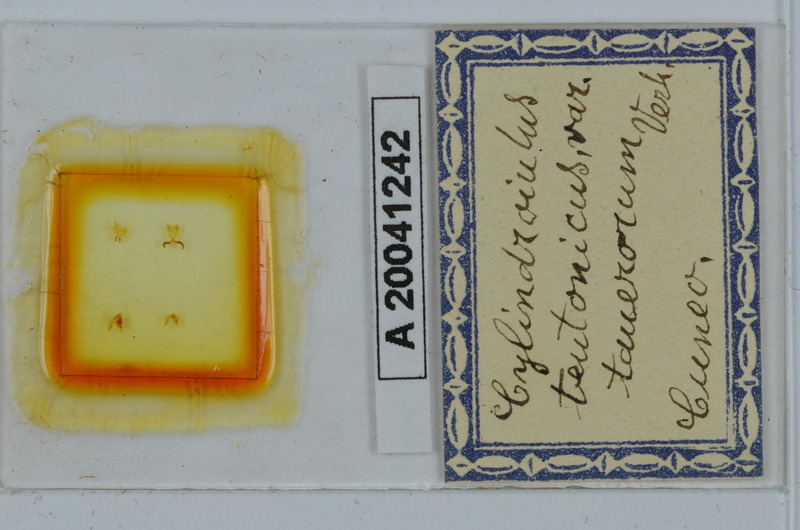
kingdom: Animalia
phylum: Arthropoda
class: Diplopoda
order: Julida
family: Julidae
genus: Cylindroiulus
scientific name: Cylindroiulus teutonicus
